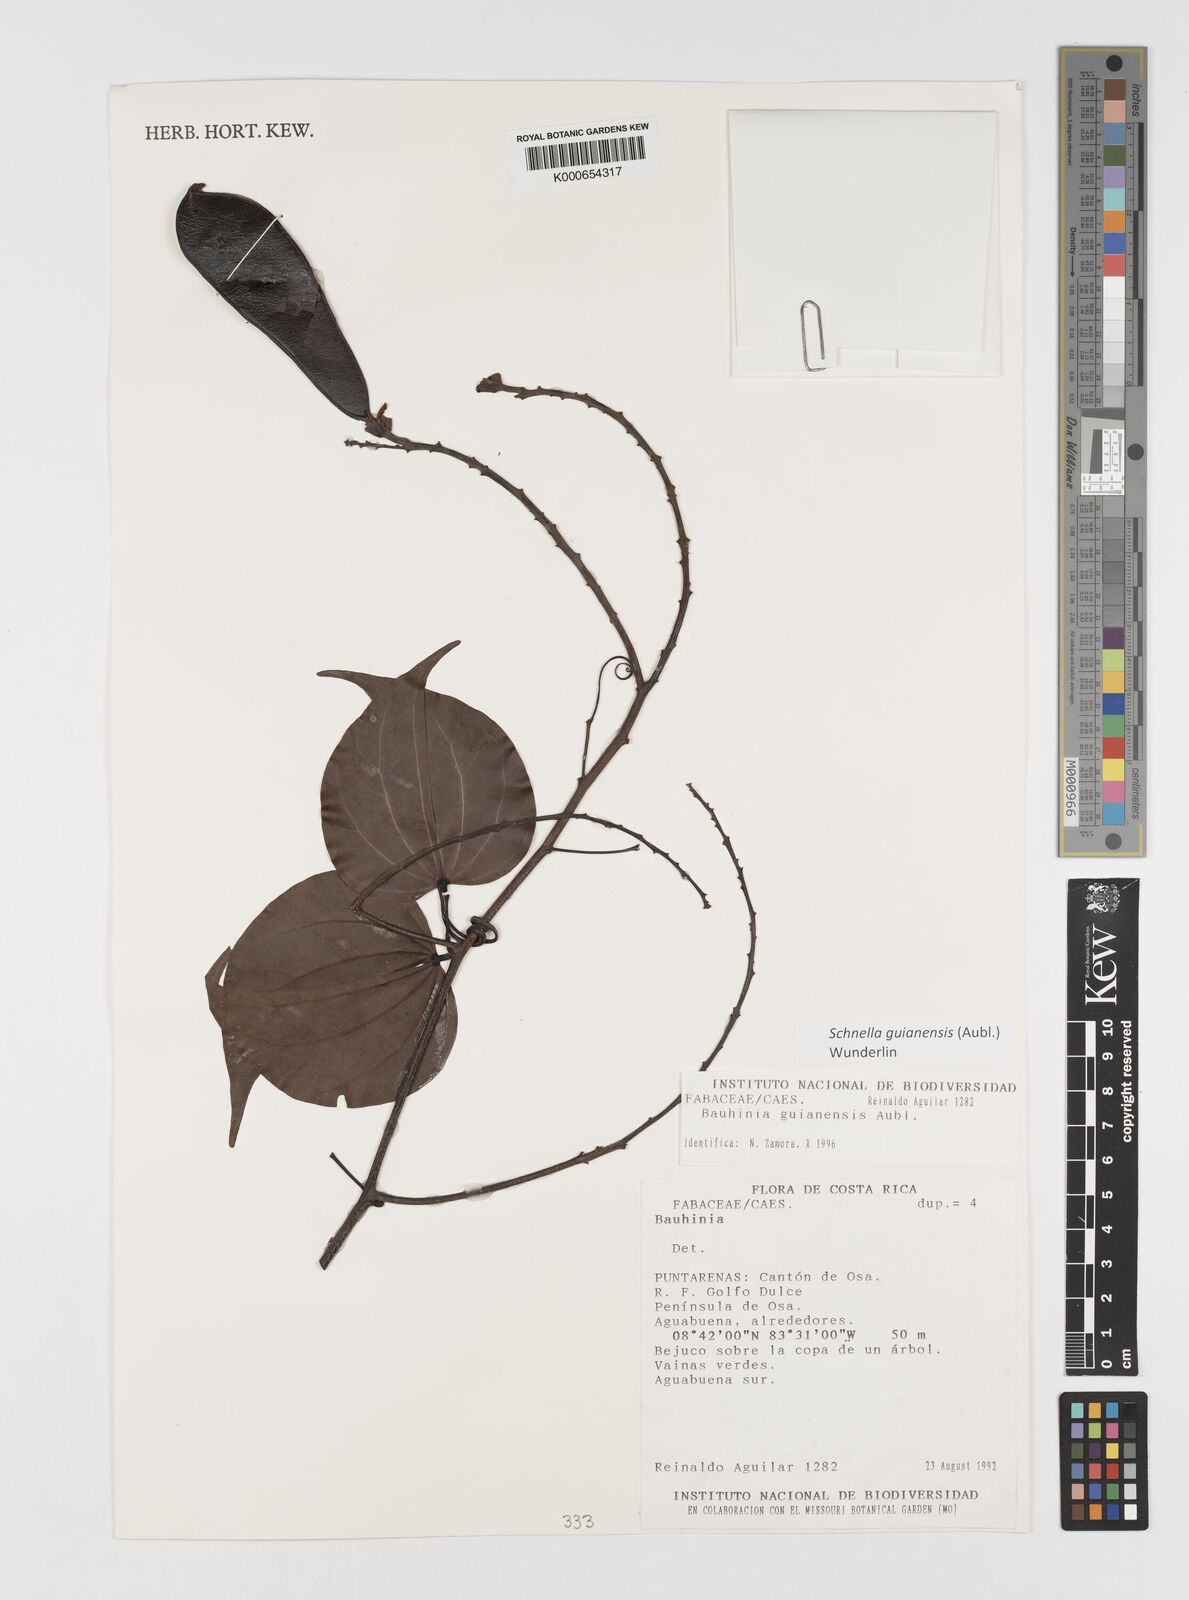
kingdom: Plantae
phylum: Tracheophyta
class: Magnoliopsida
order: Fabales
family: Fabaceae
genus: Schnella
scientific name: Schnella guianensis
